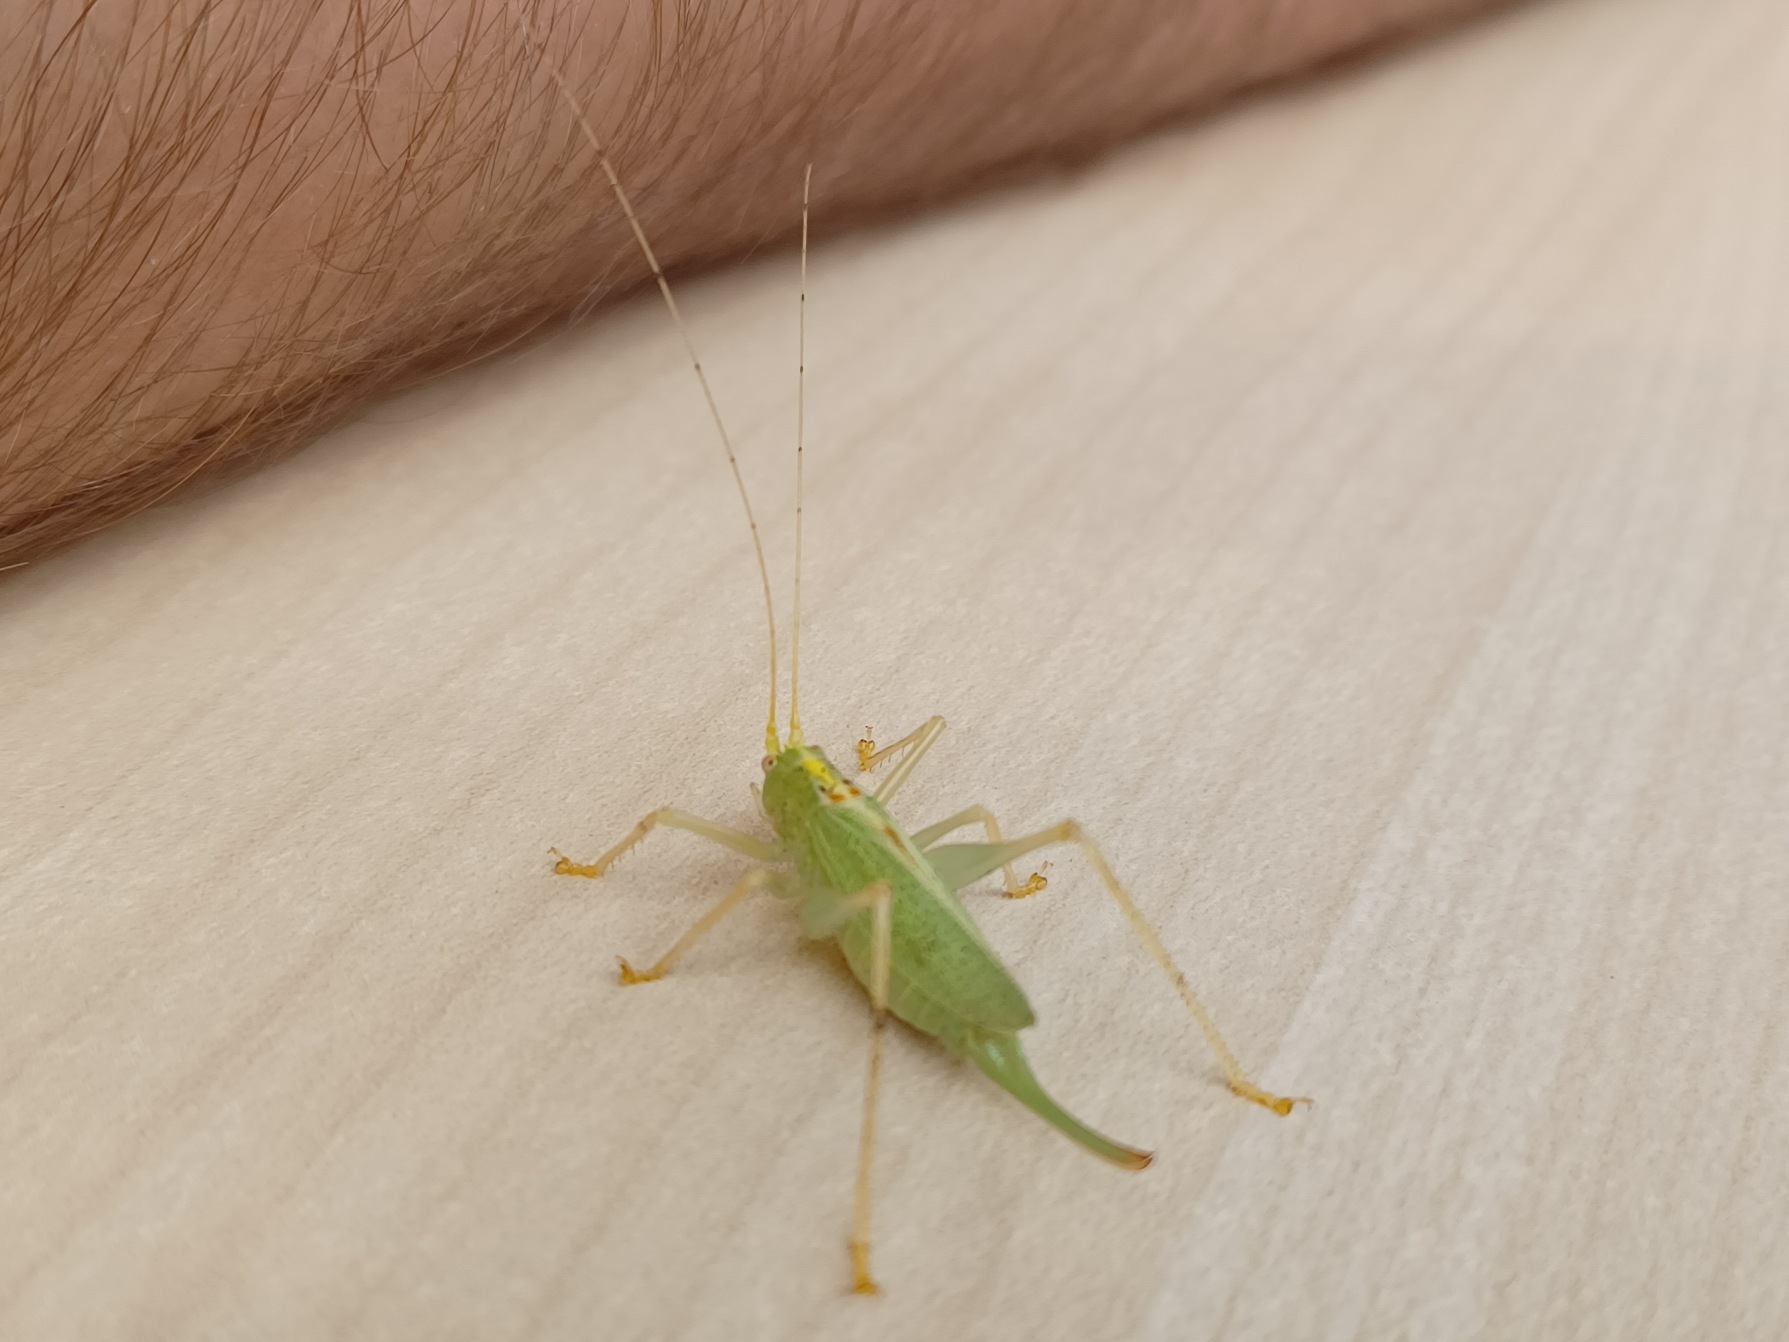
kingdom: Animalia
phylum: Arthropoda
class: Insecta
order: Orthoptera
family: Tettigoniidae
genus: Meconema
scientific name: Meconema thalassinum
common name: Egegræshoppe
